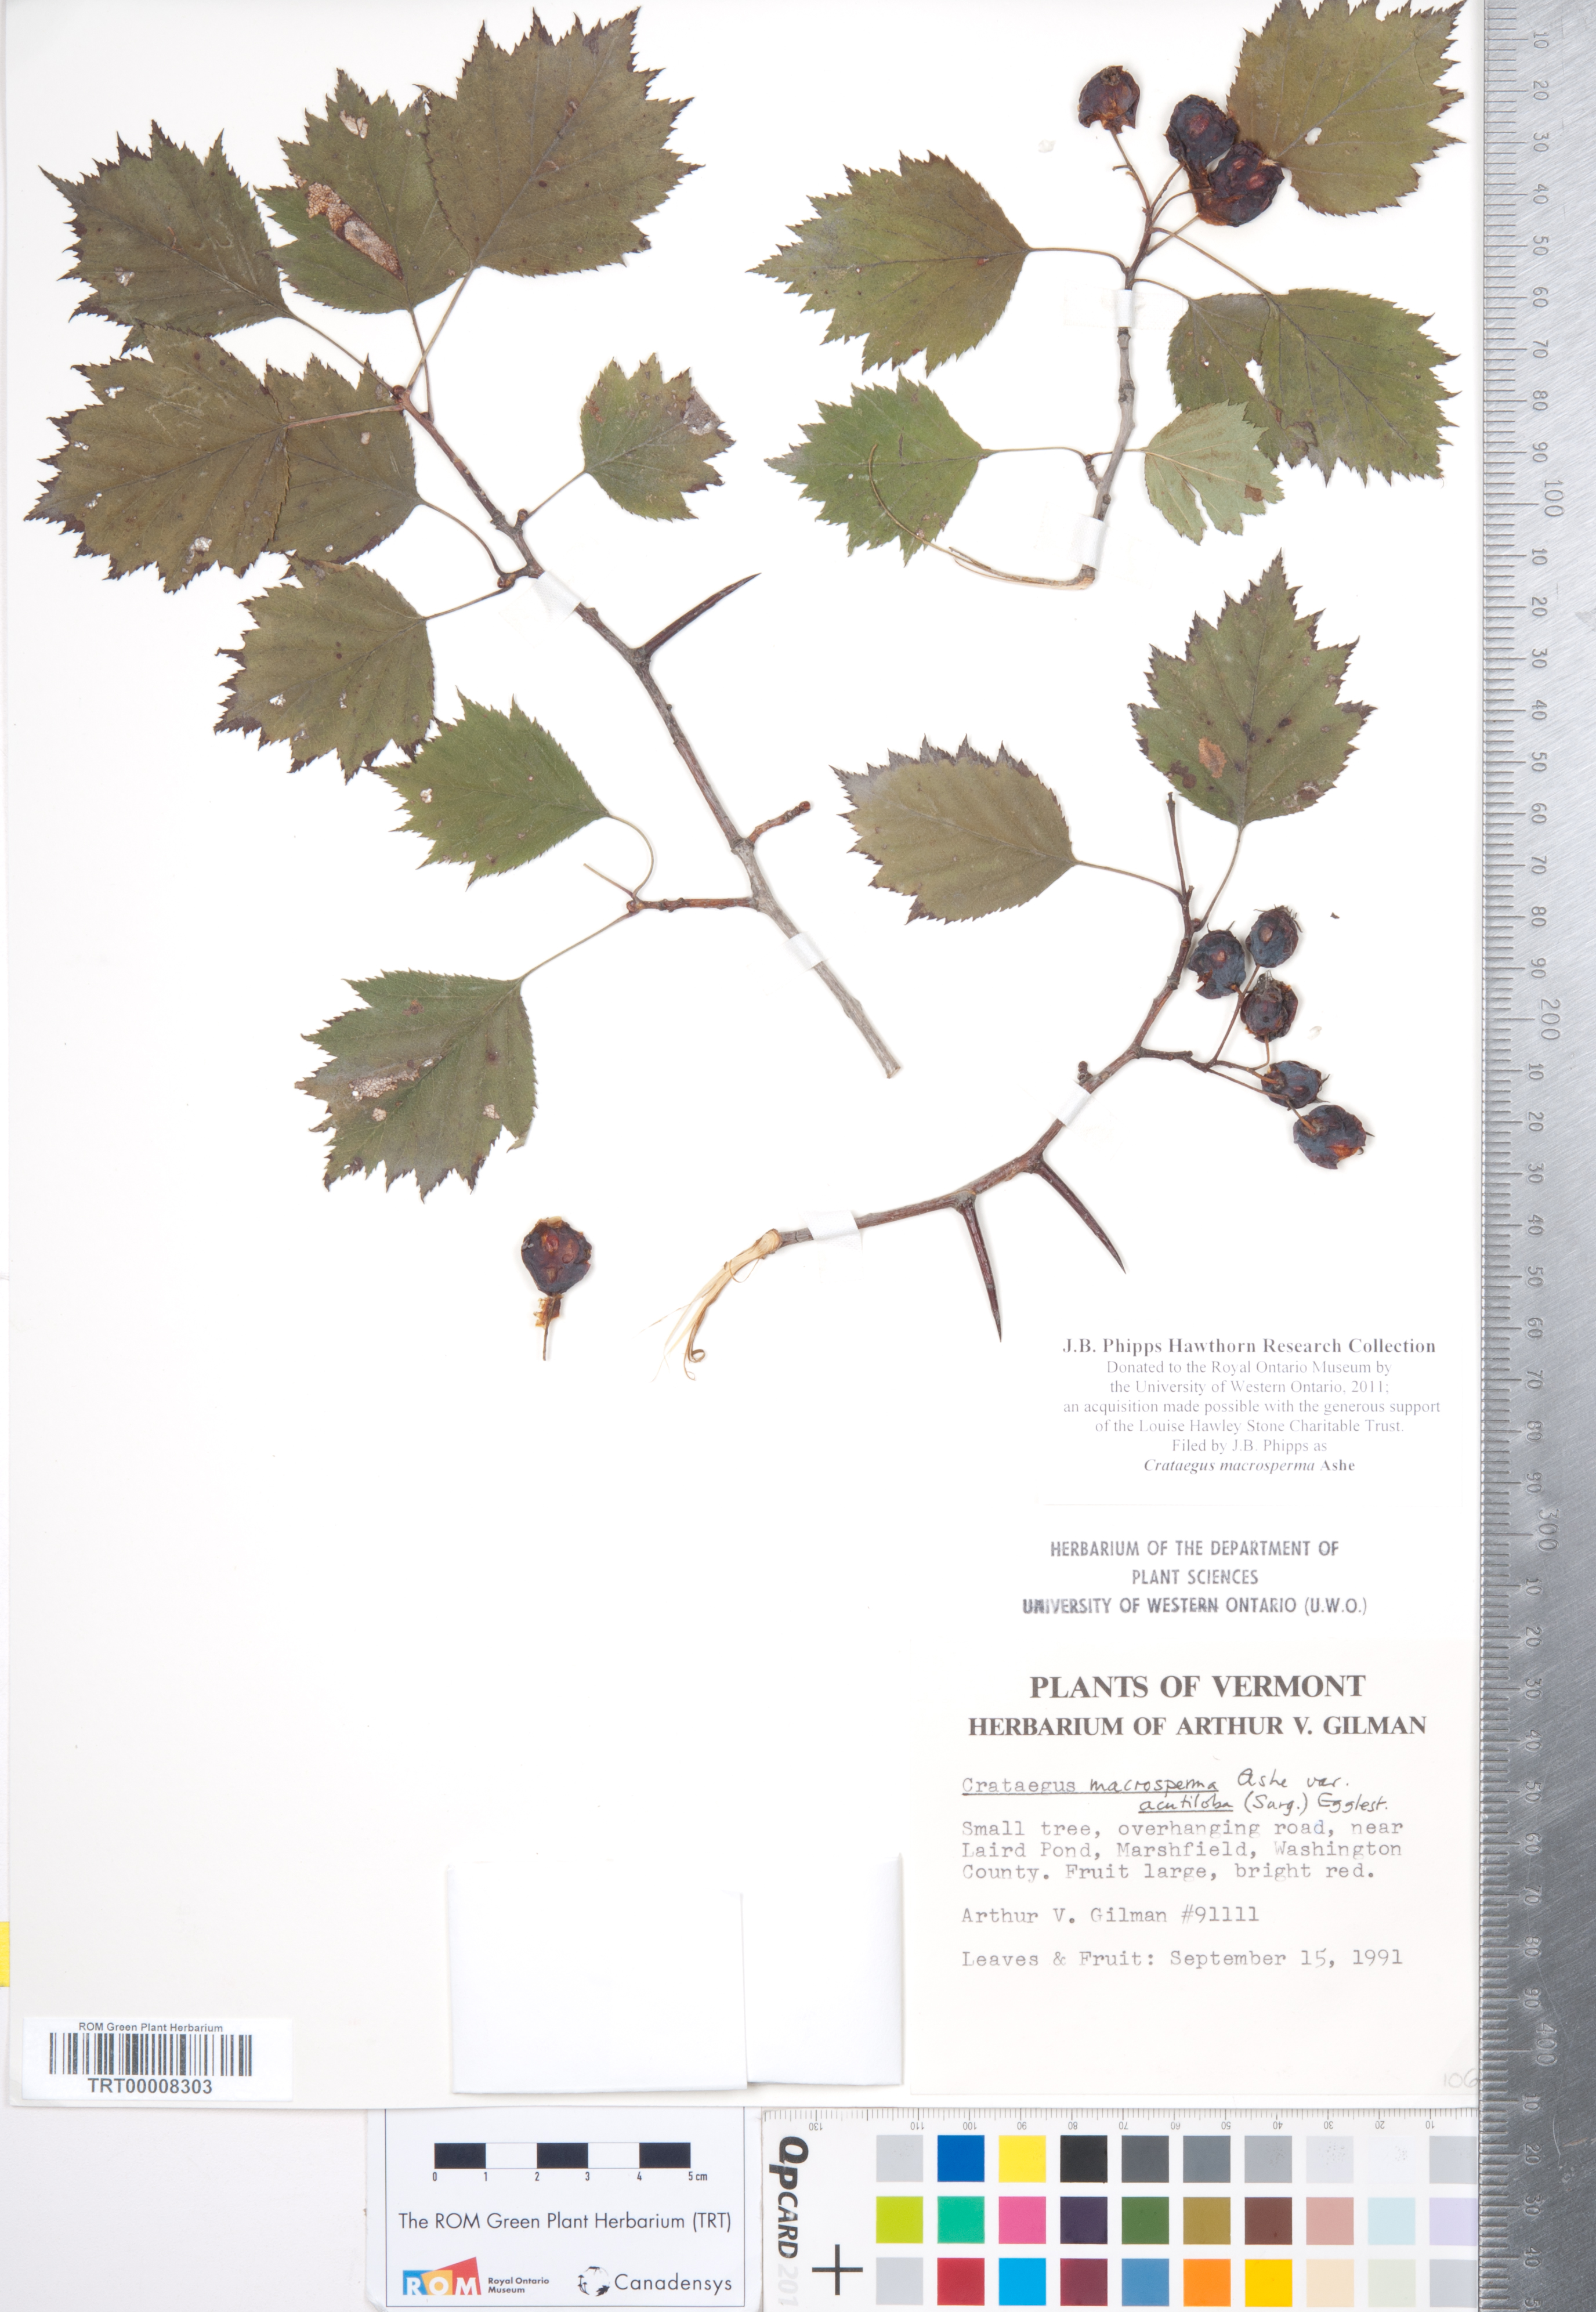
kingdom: Plantae
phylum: Tracheophyta
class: Magnoliopsida
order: Rosales
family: Rosaceae
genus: Crataegus
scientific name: Crataegus macrosperma
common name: Variable hawthorn
